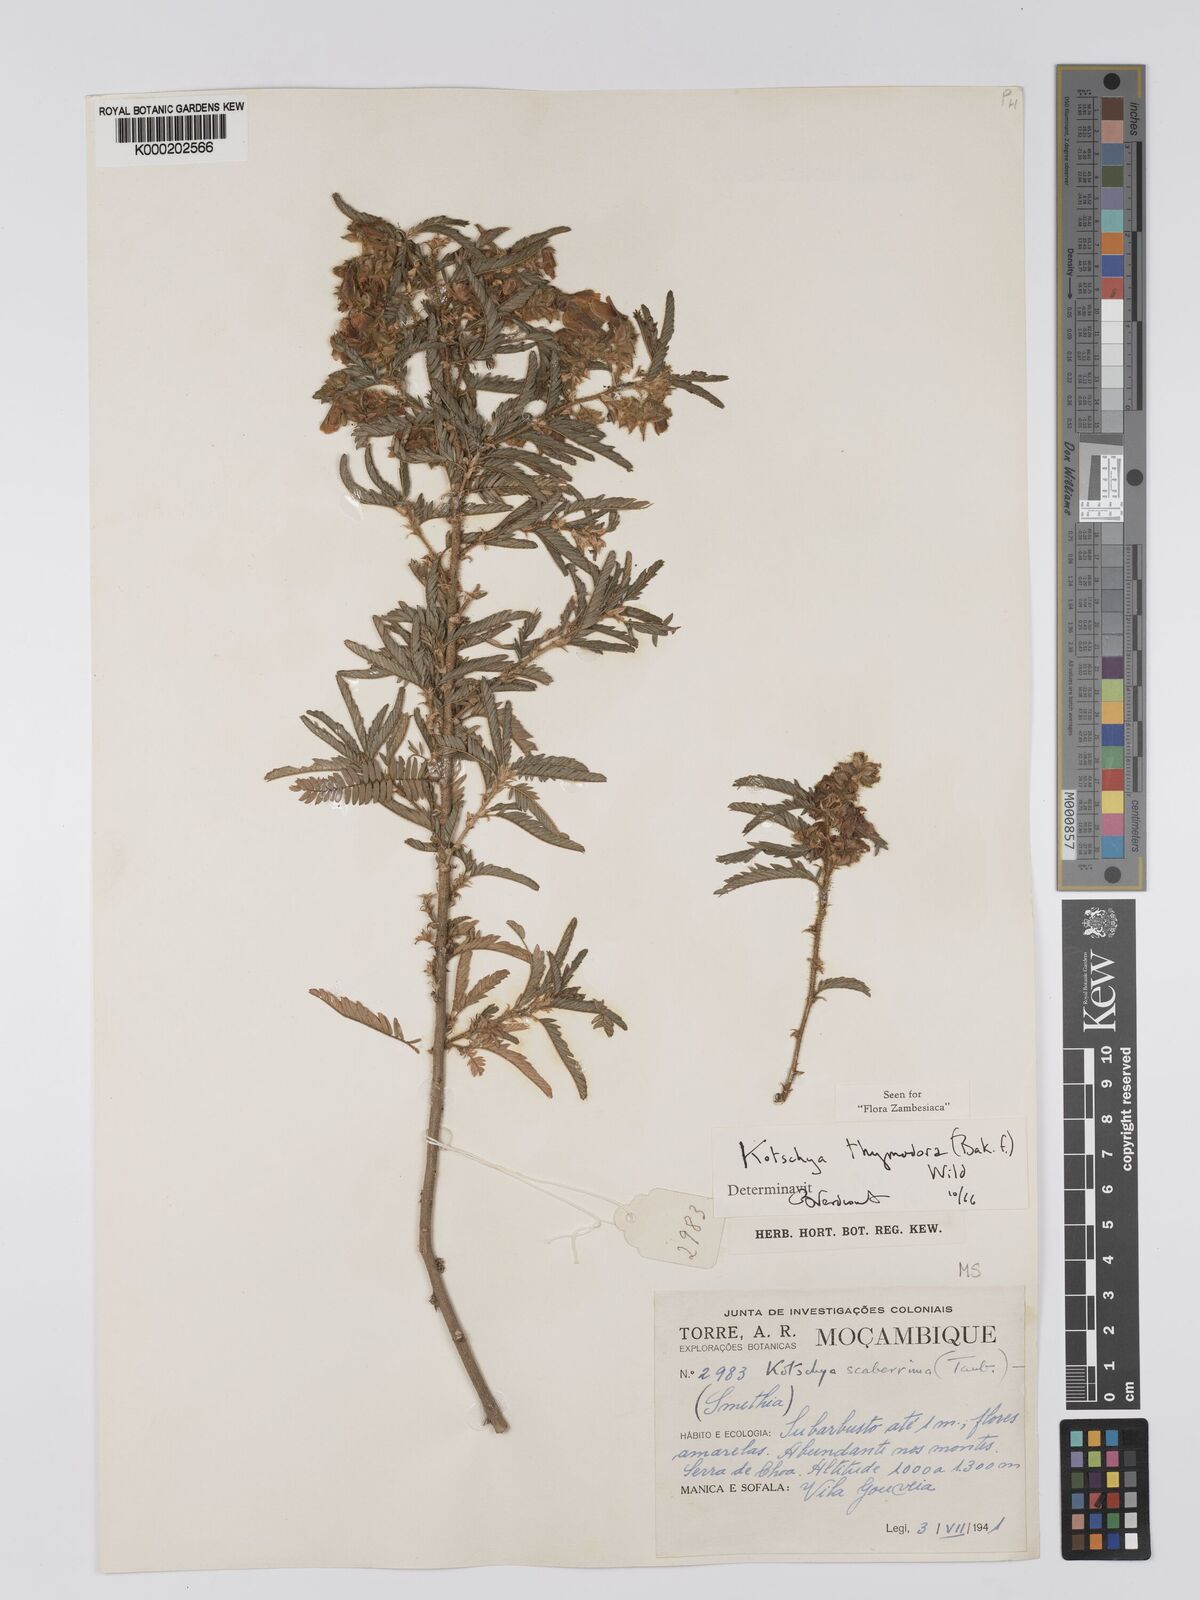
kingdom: Plantae
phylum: Tracheophyta
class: Magnoliopsida
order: Fabales
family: Fabaceae
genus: Kotschya
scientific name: Kotschya thymodora
